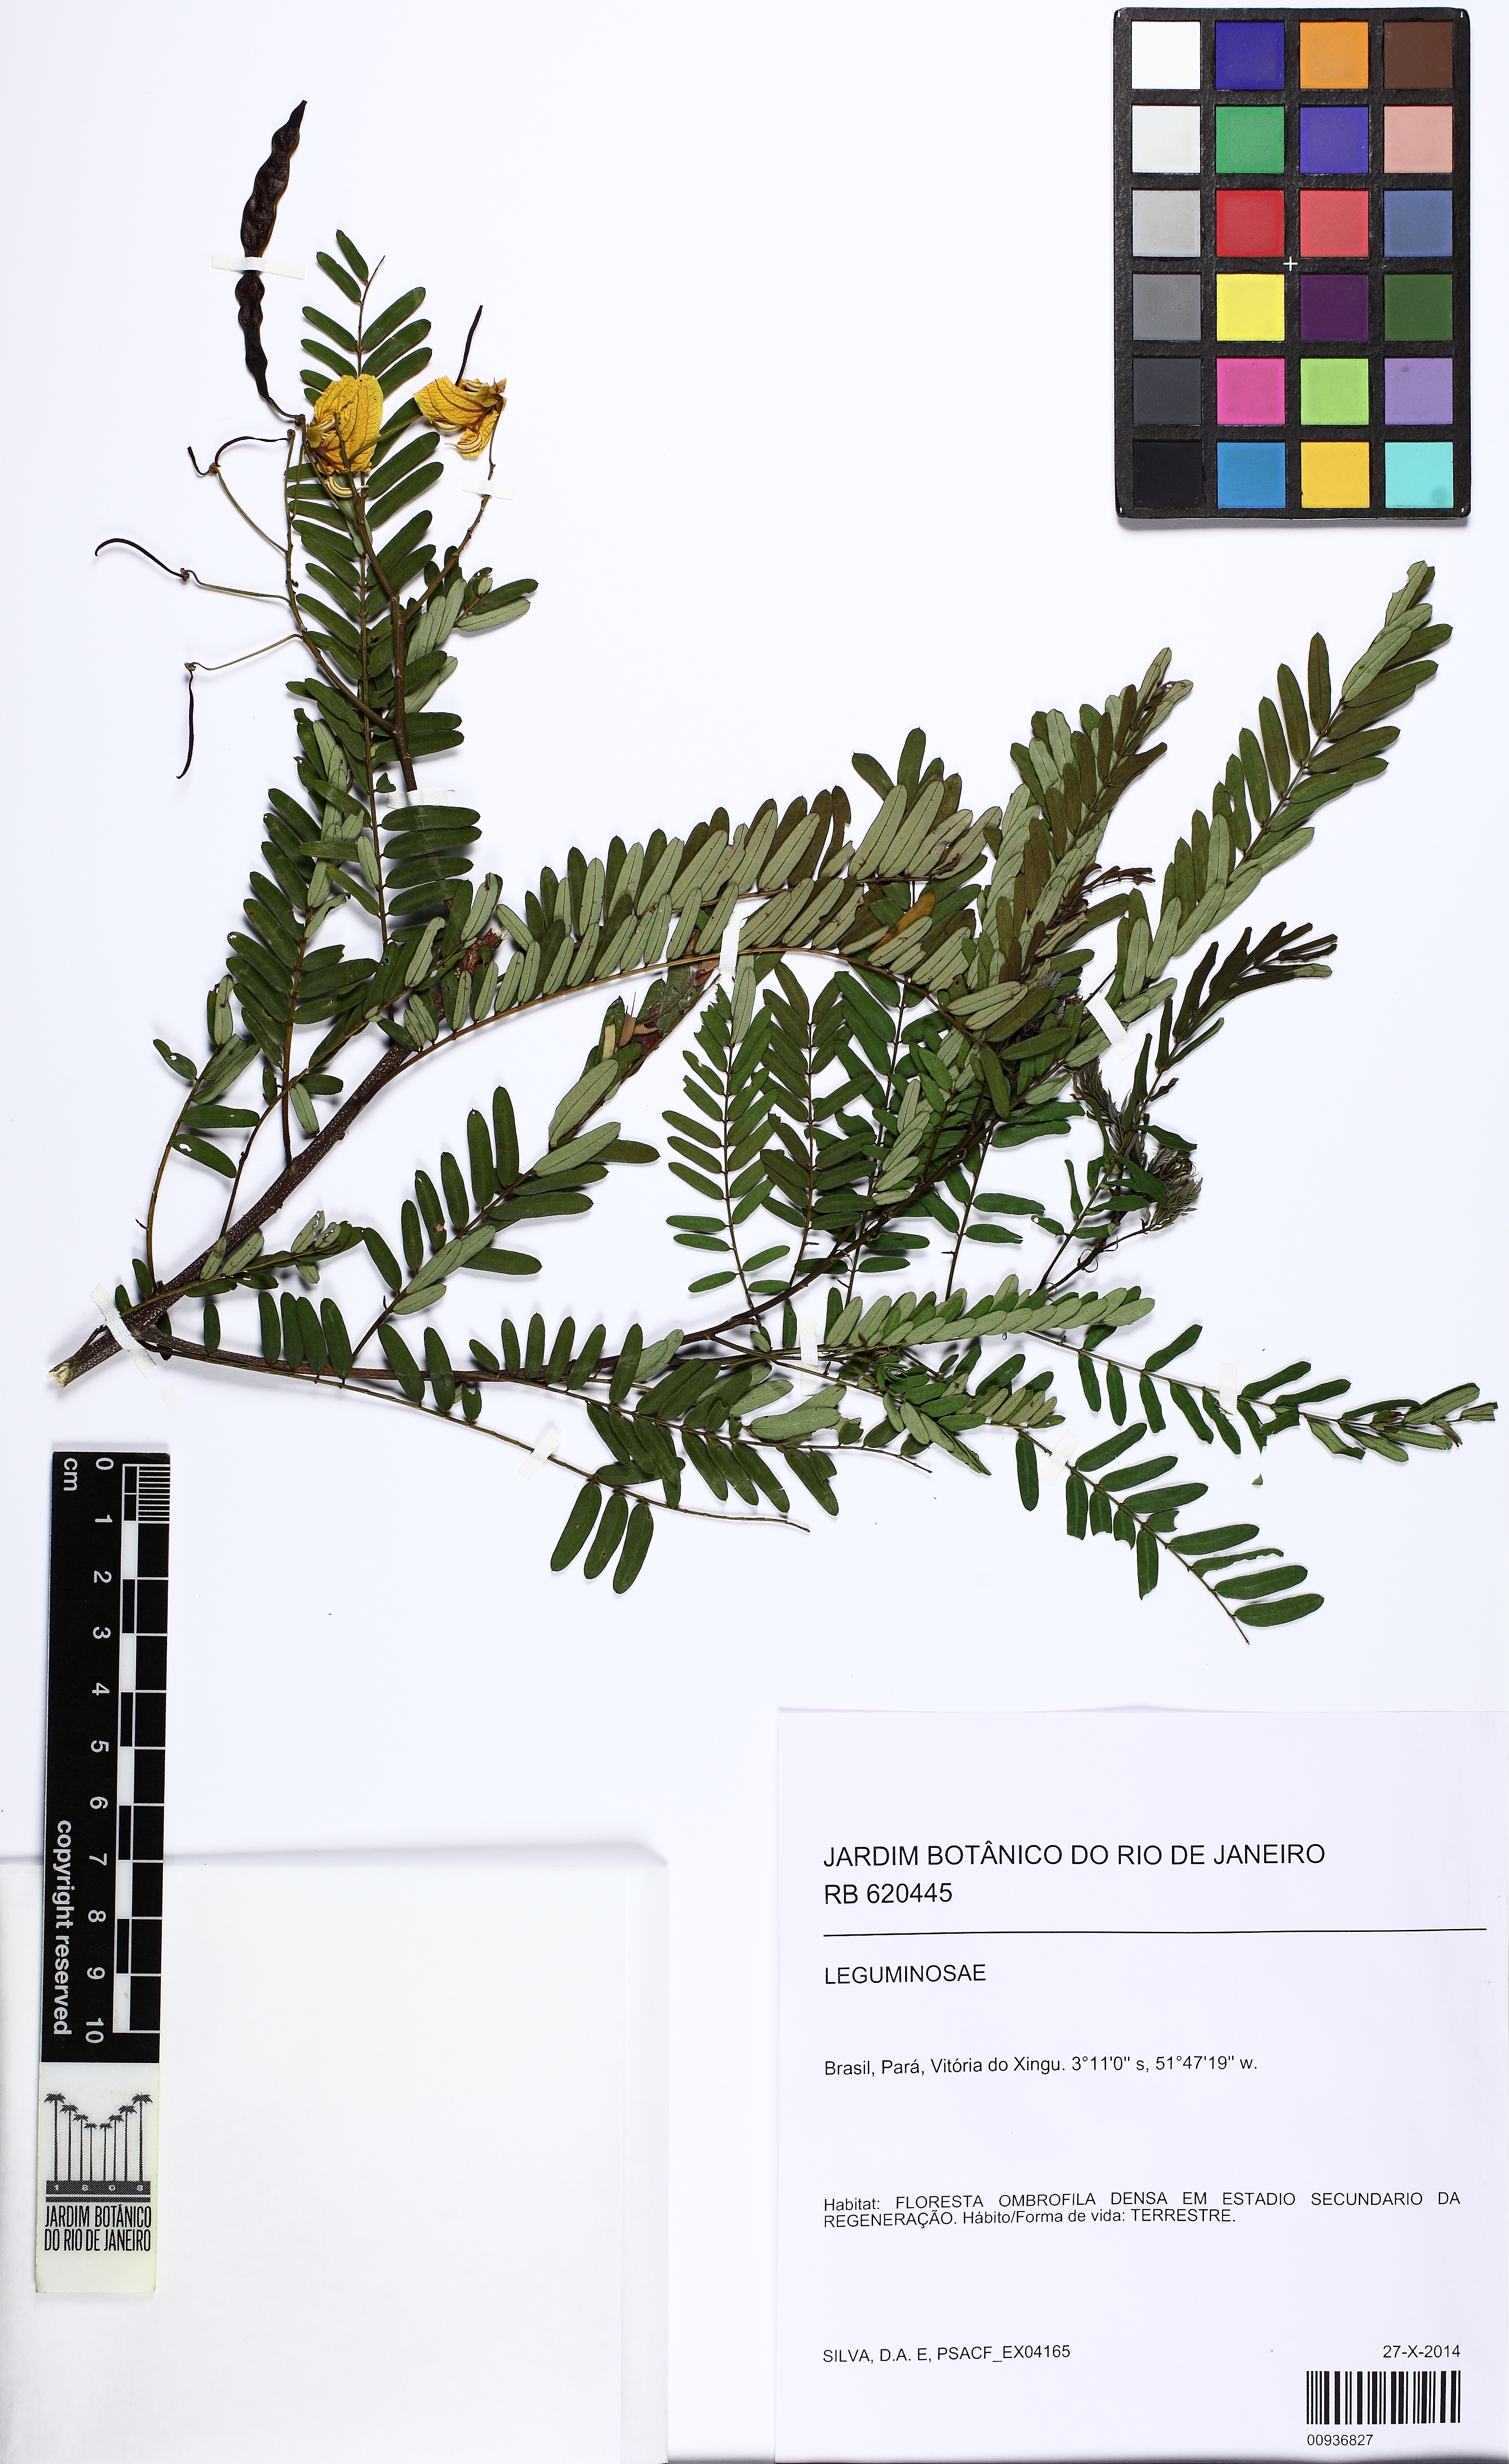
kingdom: Plantae
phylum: Tracheophyta
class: Magnoliopsida
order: Fabales
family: Fabaceae
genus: Senna
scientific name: Senna multijuga
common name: False sicklepod
